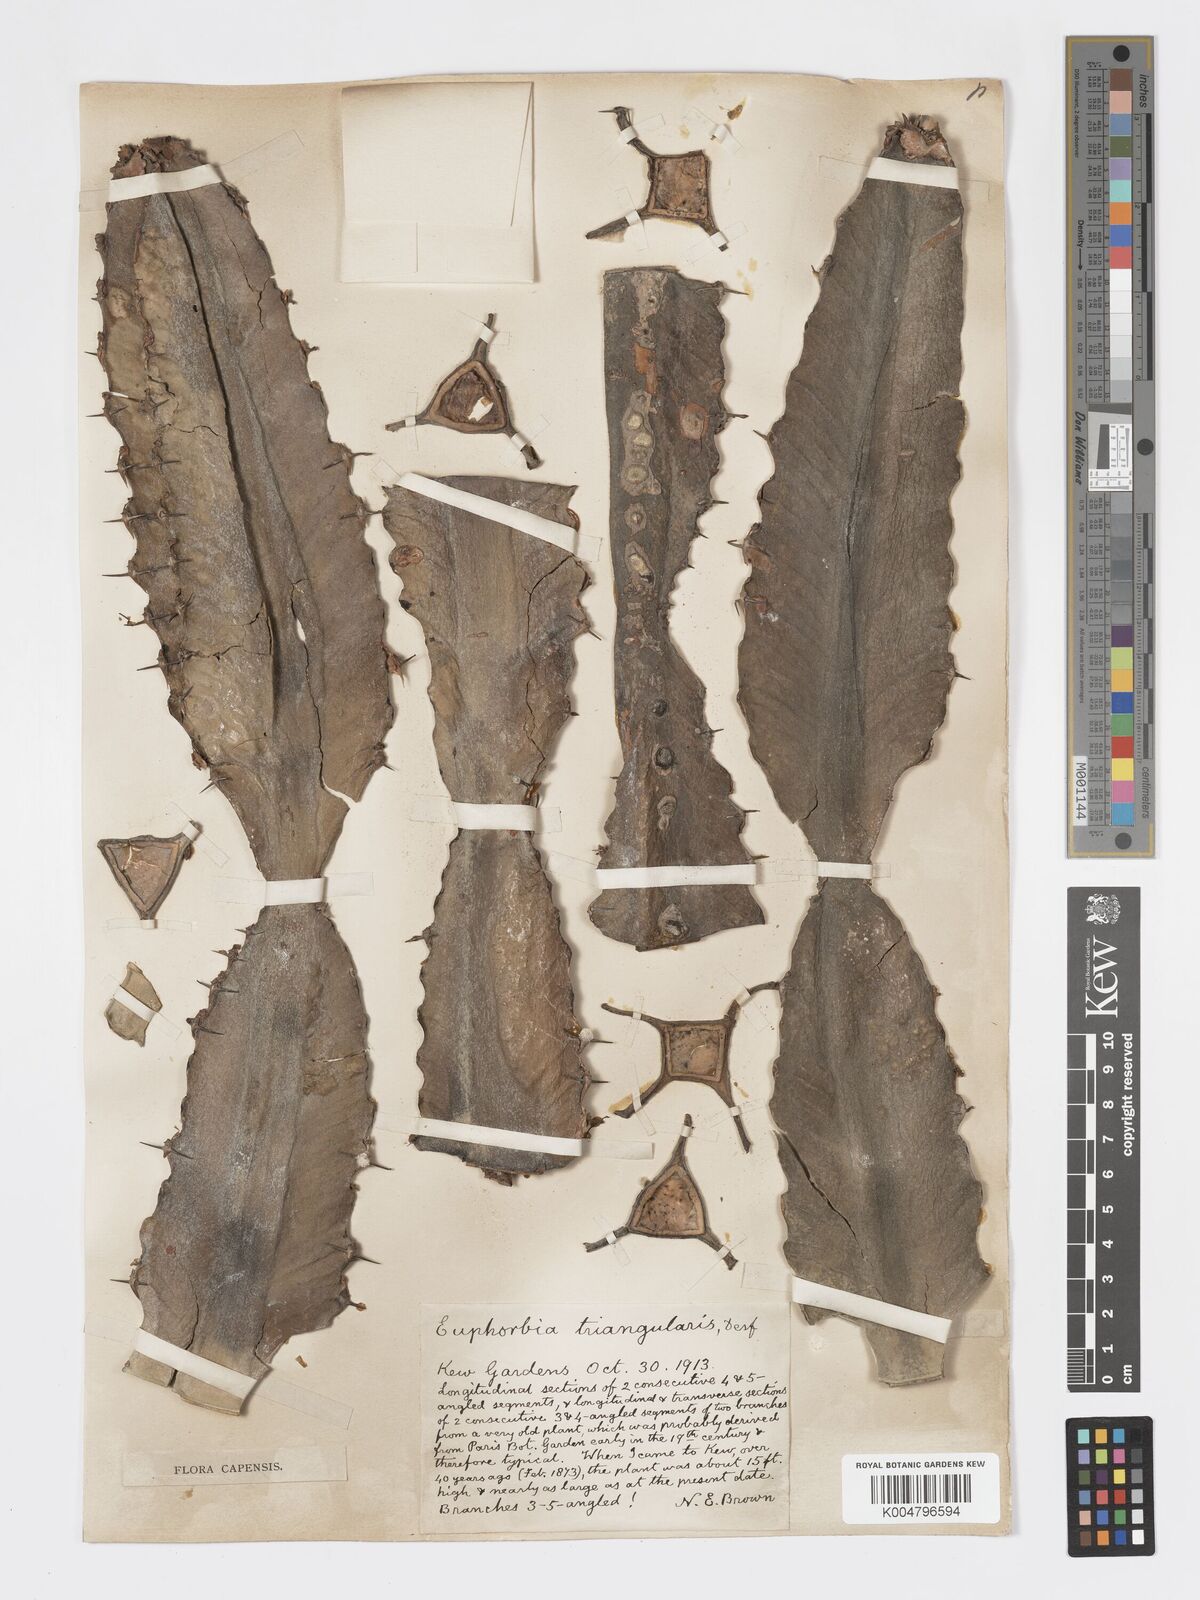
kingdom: Plantae
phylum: Tracheophyta
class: Magnoliopsida
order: Malpighiales
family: Euphorbiaceae
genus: Euphorbia
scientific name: Euphorbia triangularis
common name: Chandelier tree
